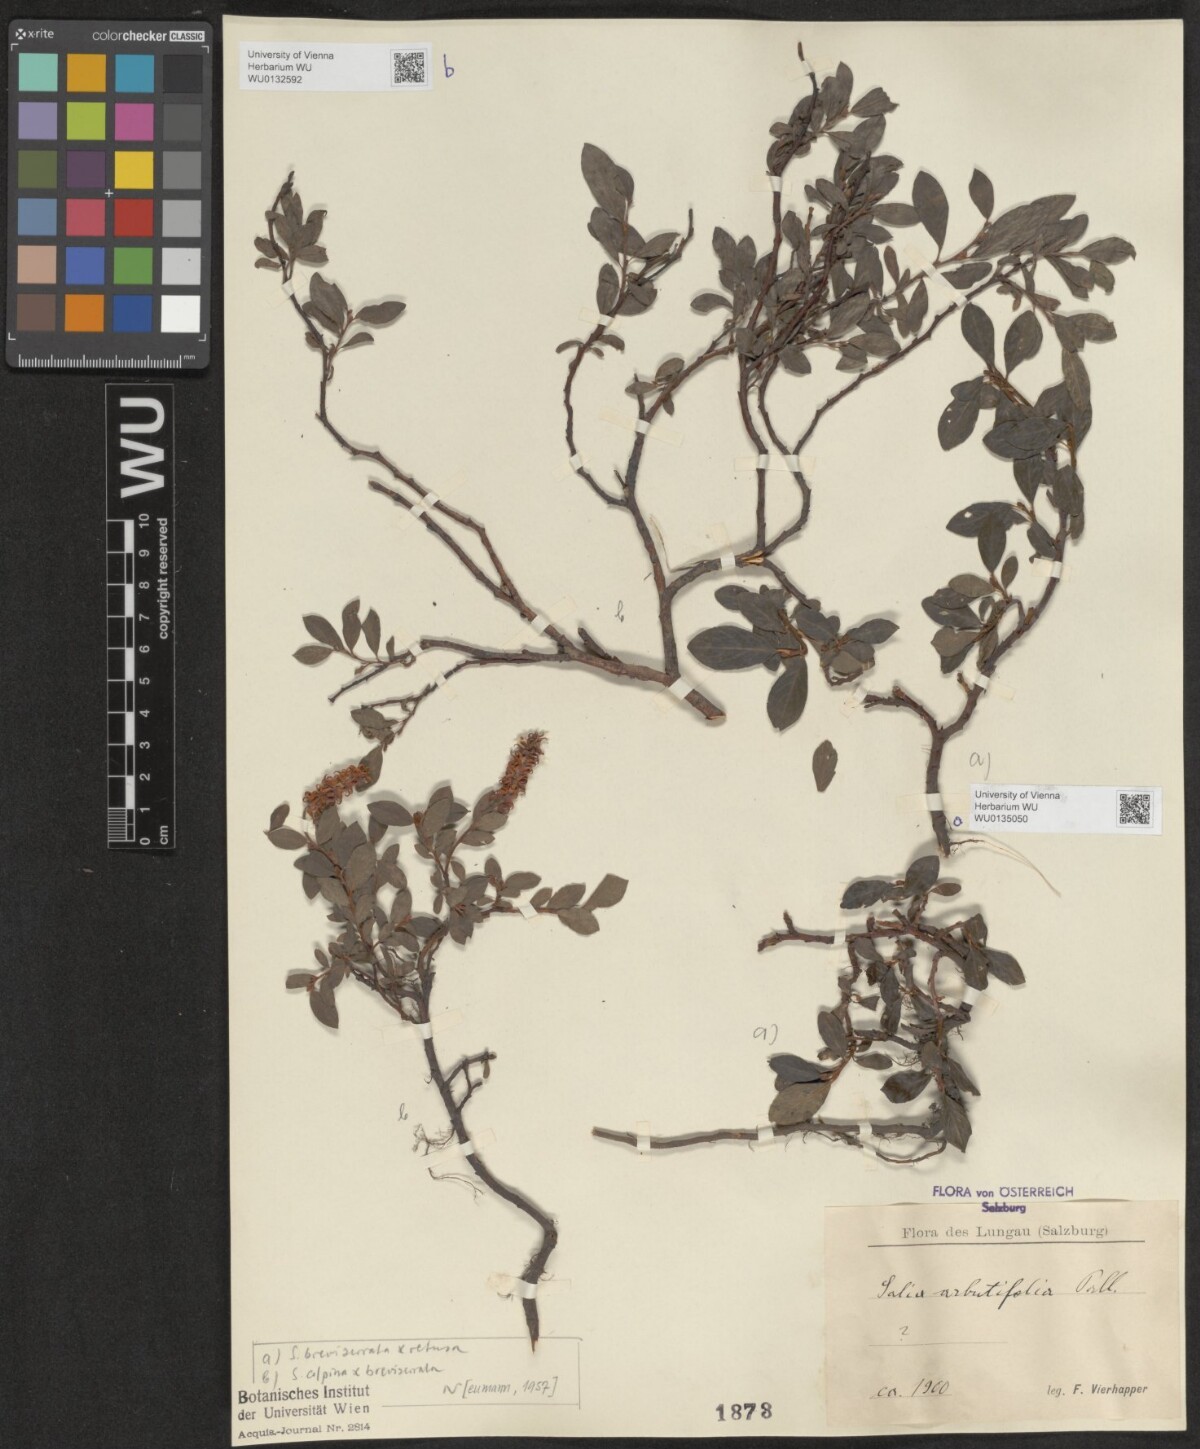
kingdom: Plantae
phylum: Tracheophyta
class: Magnoliopsida
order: Malpighiales
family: Salicaceae
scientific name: Salicaceae
